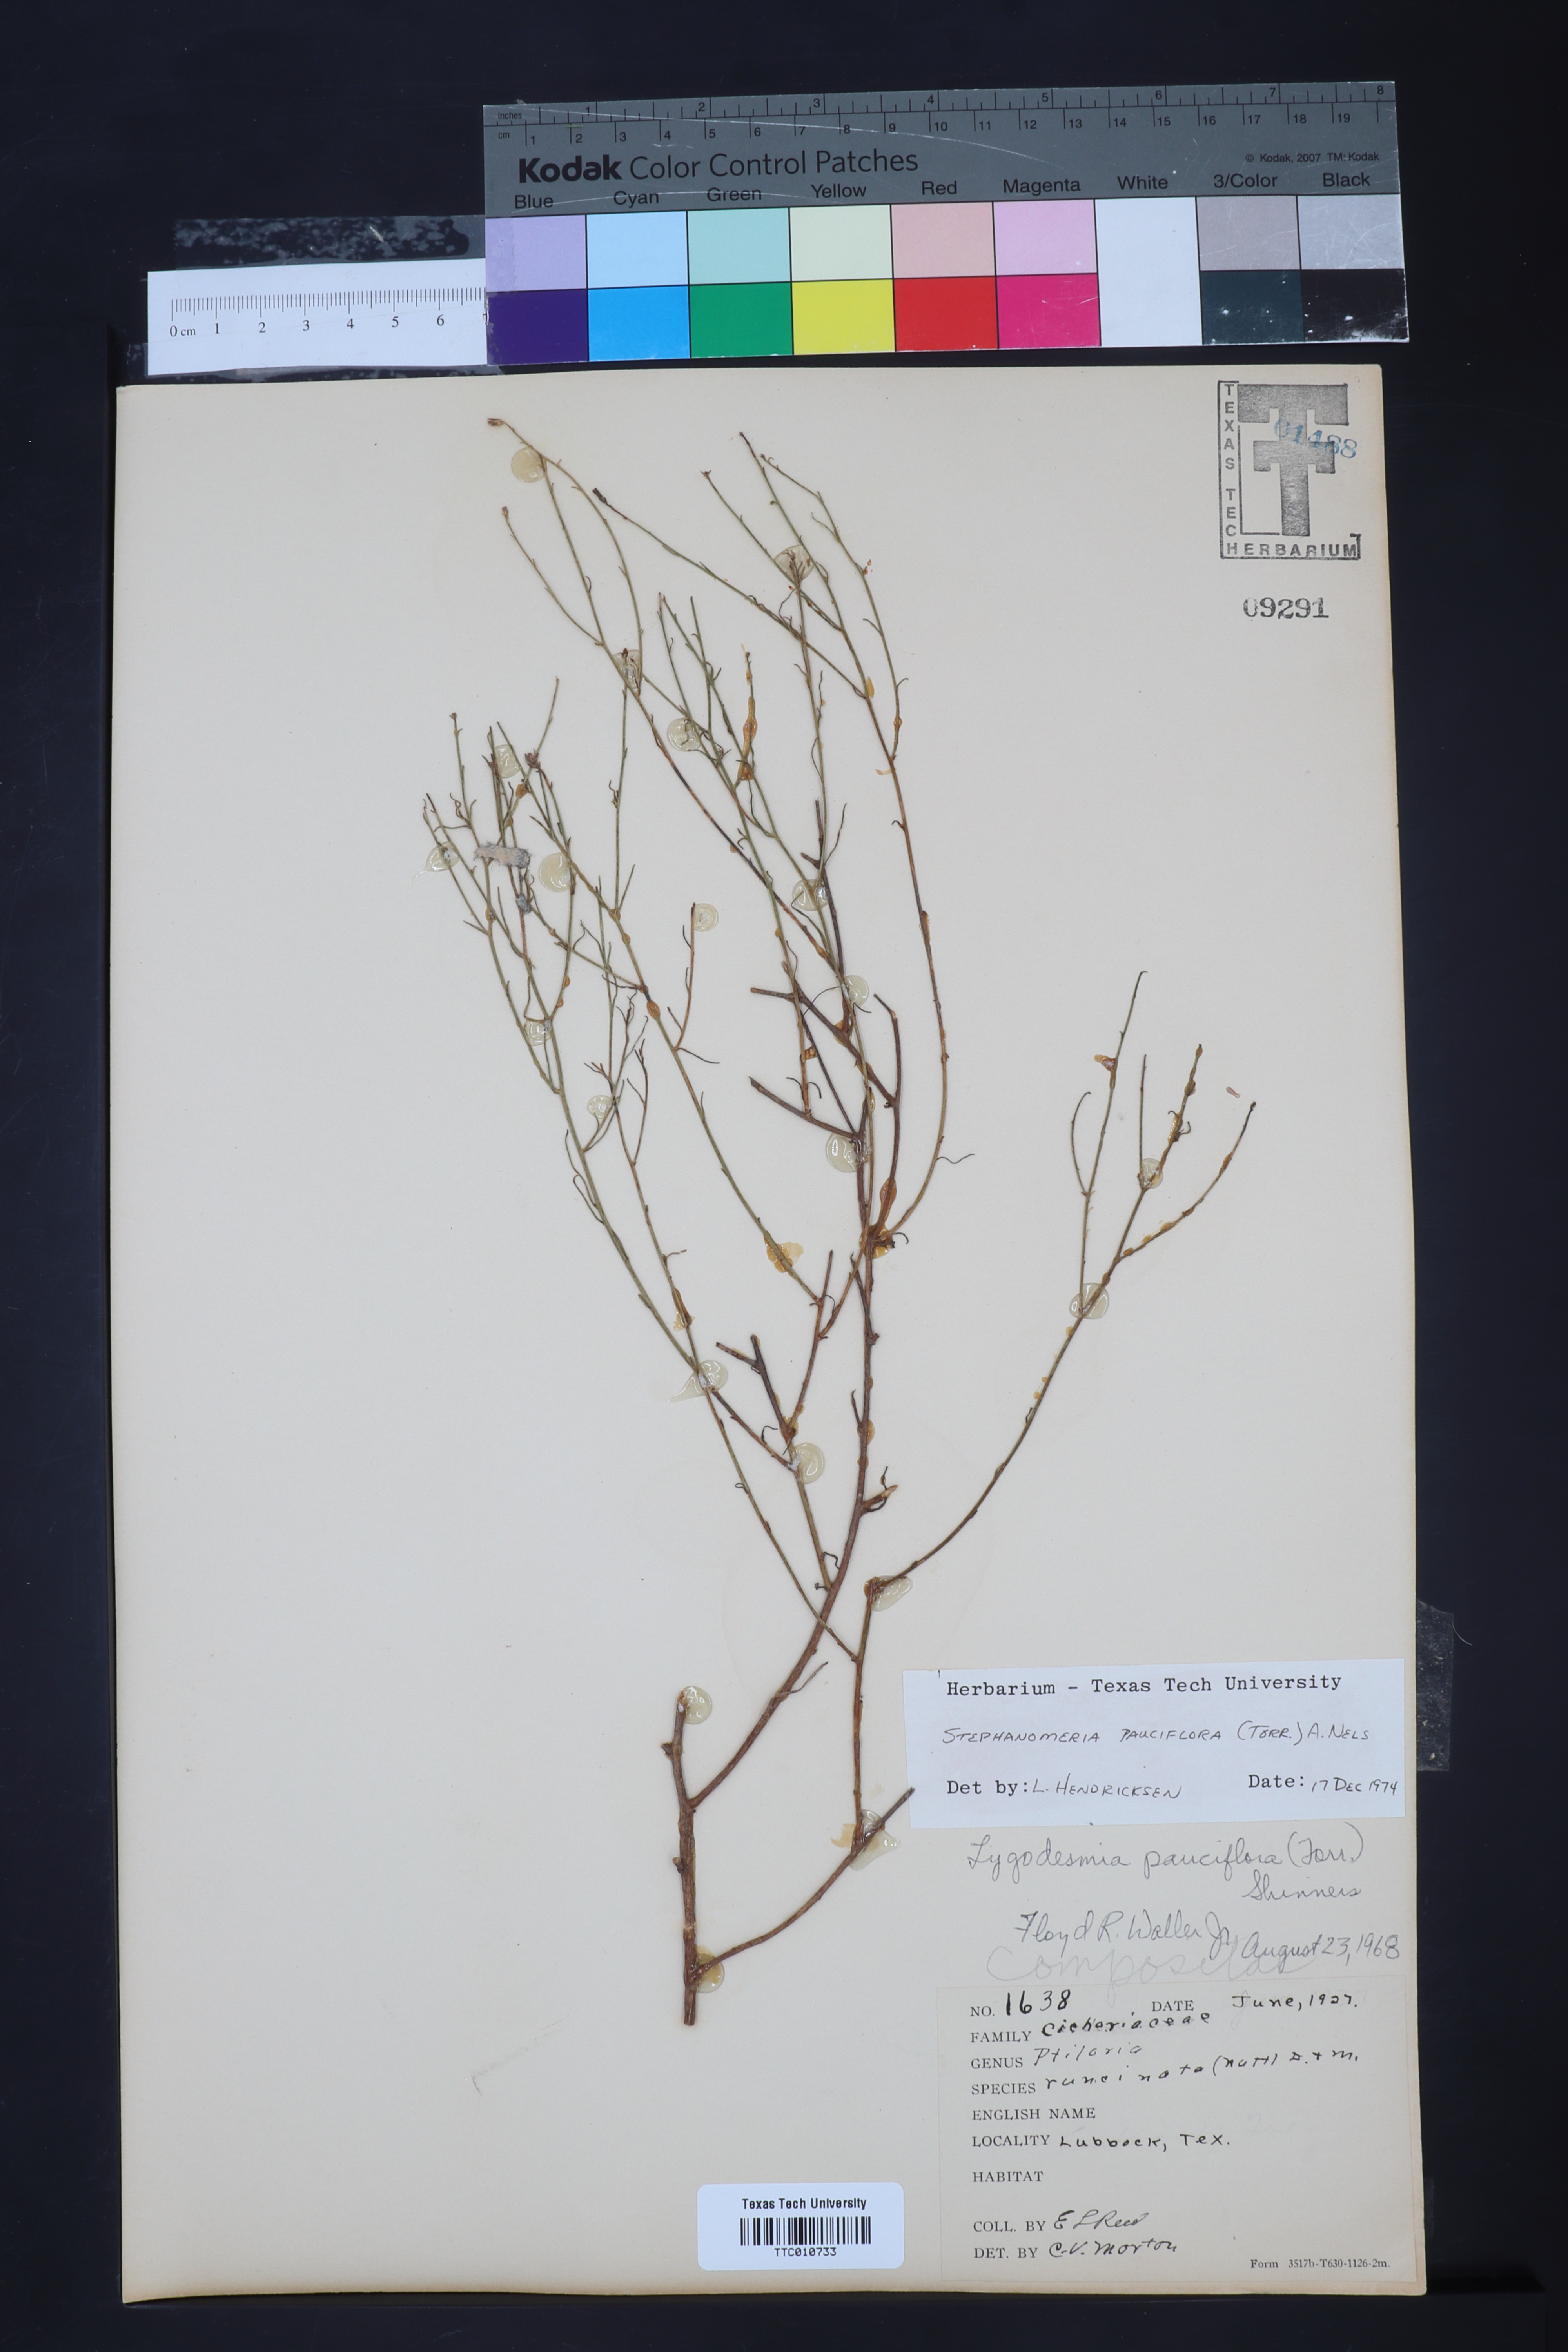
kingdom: Plantae
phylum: Tracheophyta
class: Magnoliopsida
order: Asterales
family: Asteraceae
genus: Stephanomeria
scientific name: Stephanomeria pauciflora
